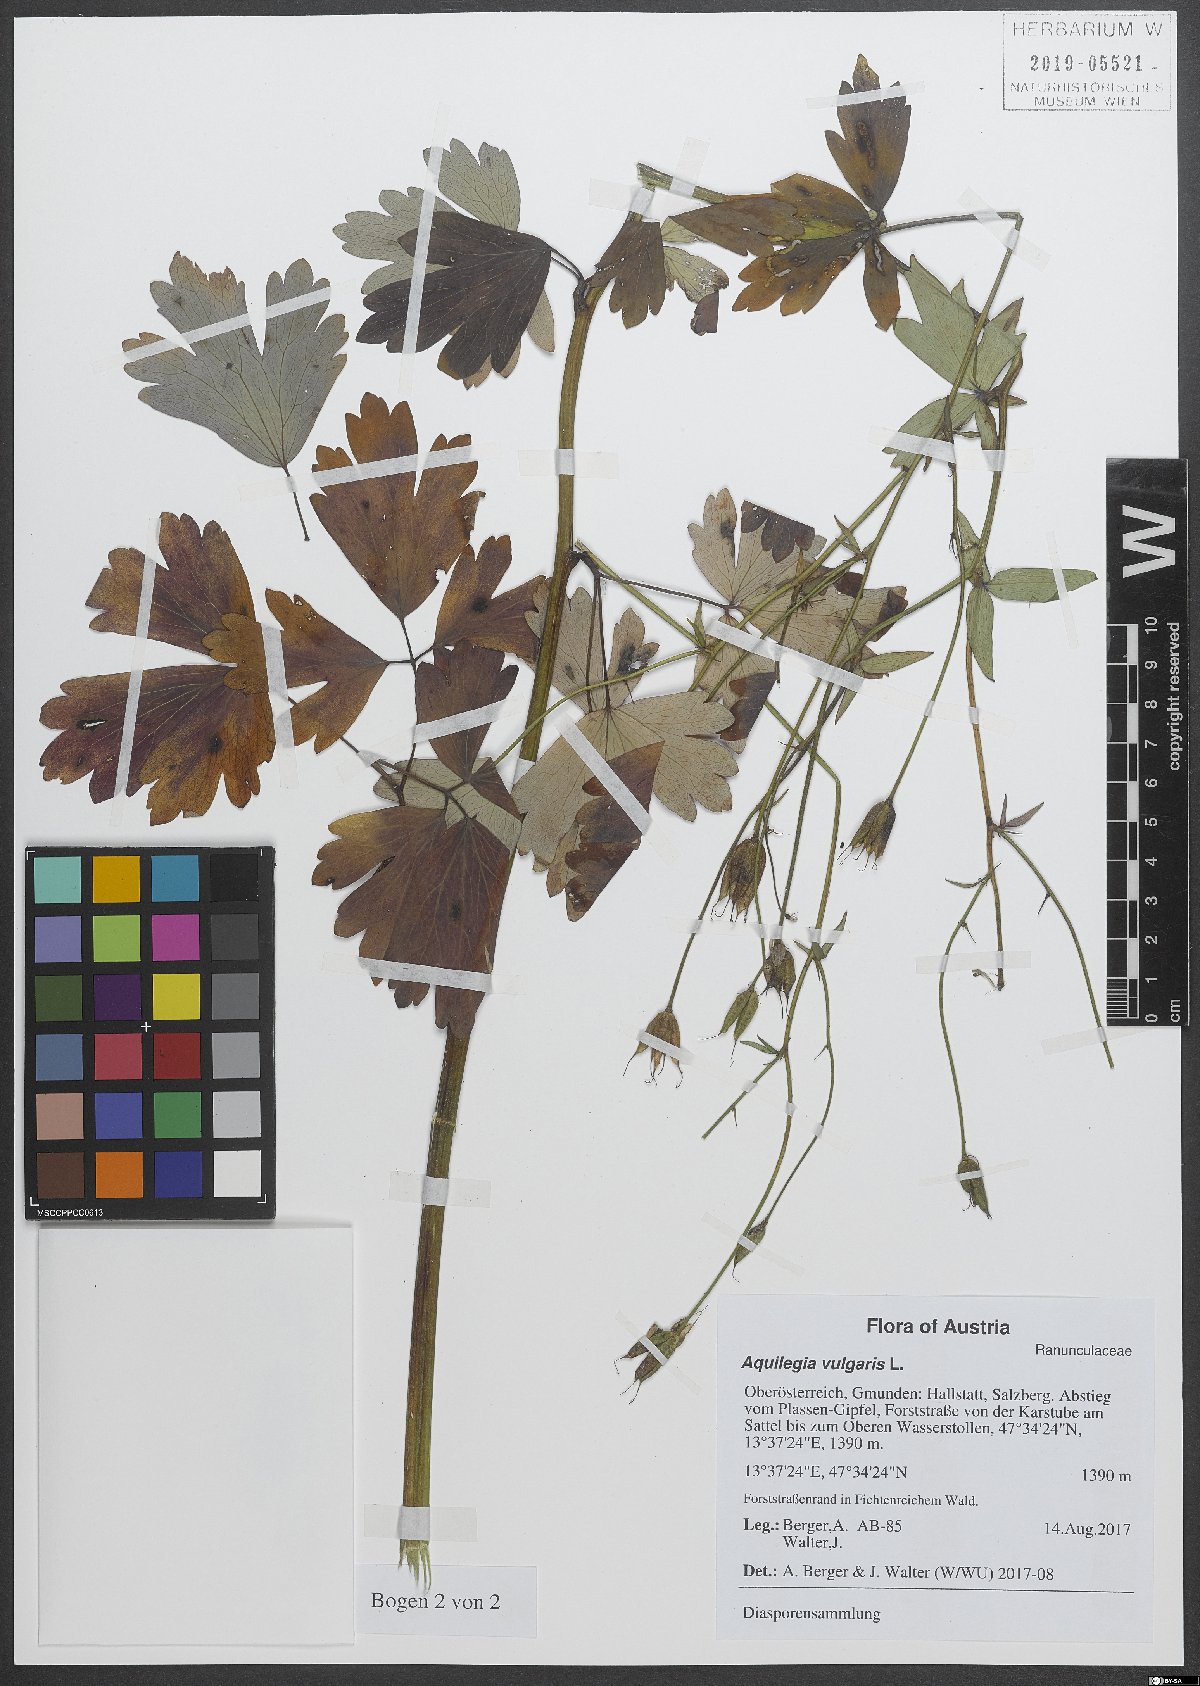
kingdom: Plantae
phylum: Tracheophyta
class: Magnoliopsida
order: Ranunculales
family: Ranunculaceae
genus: Aquilegia
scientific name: Aquilegia vulgaris
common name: Columbine
